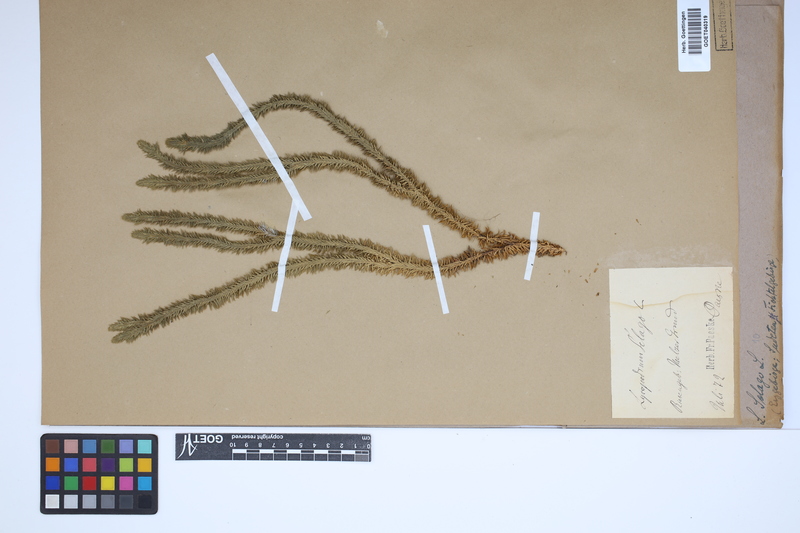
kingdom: Plantae
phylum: Tracheophyta
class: Lycopodiopsida
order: Lycopodiales
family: Lycopodiaceae
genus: Huperzia
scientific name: Huperzia selago
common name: Northern firmoss
